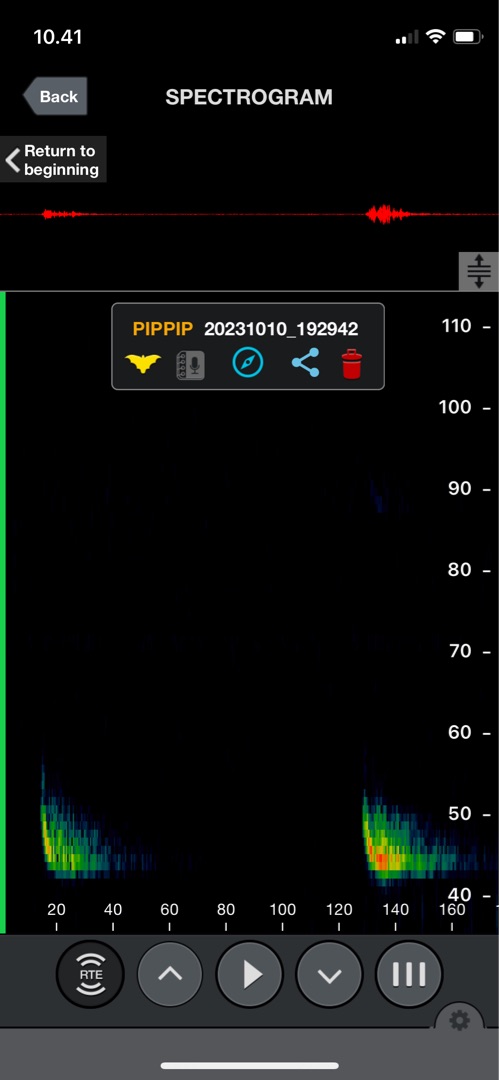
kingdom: Animalia
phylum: Chordata
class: Mammalia
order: Chiroptera
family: Vespertilionidae
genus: Pipistrellus
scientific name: Pipistrellus nathusii
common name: Troldflagermus
